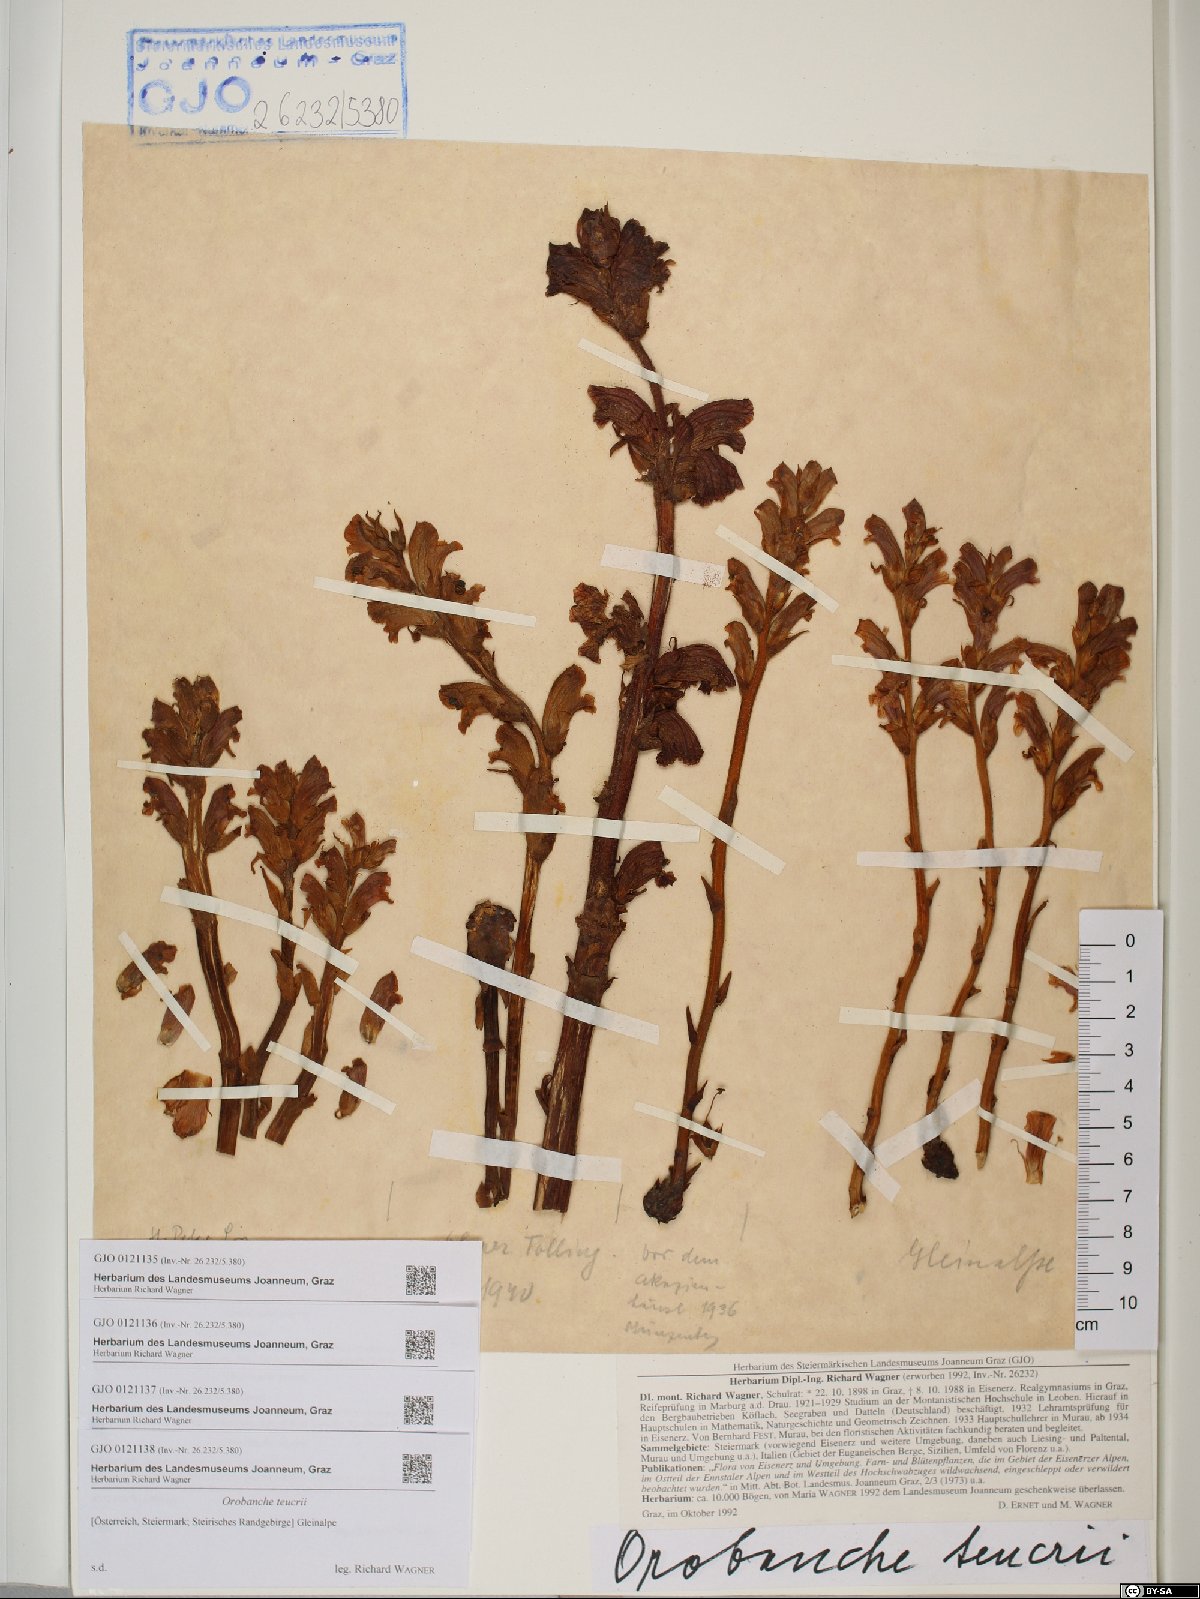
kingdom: Plantae
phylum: Tracheophyta
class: Magnoliopsida
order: Lamiales
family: Orobanchaceae
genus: Orobanche
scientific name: Orobanche teucrii
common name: Germander broomrape
